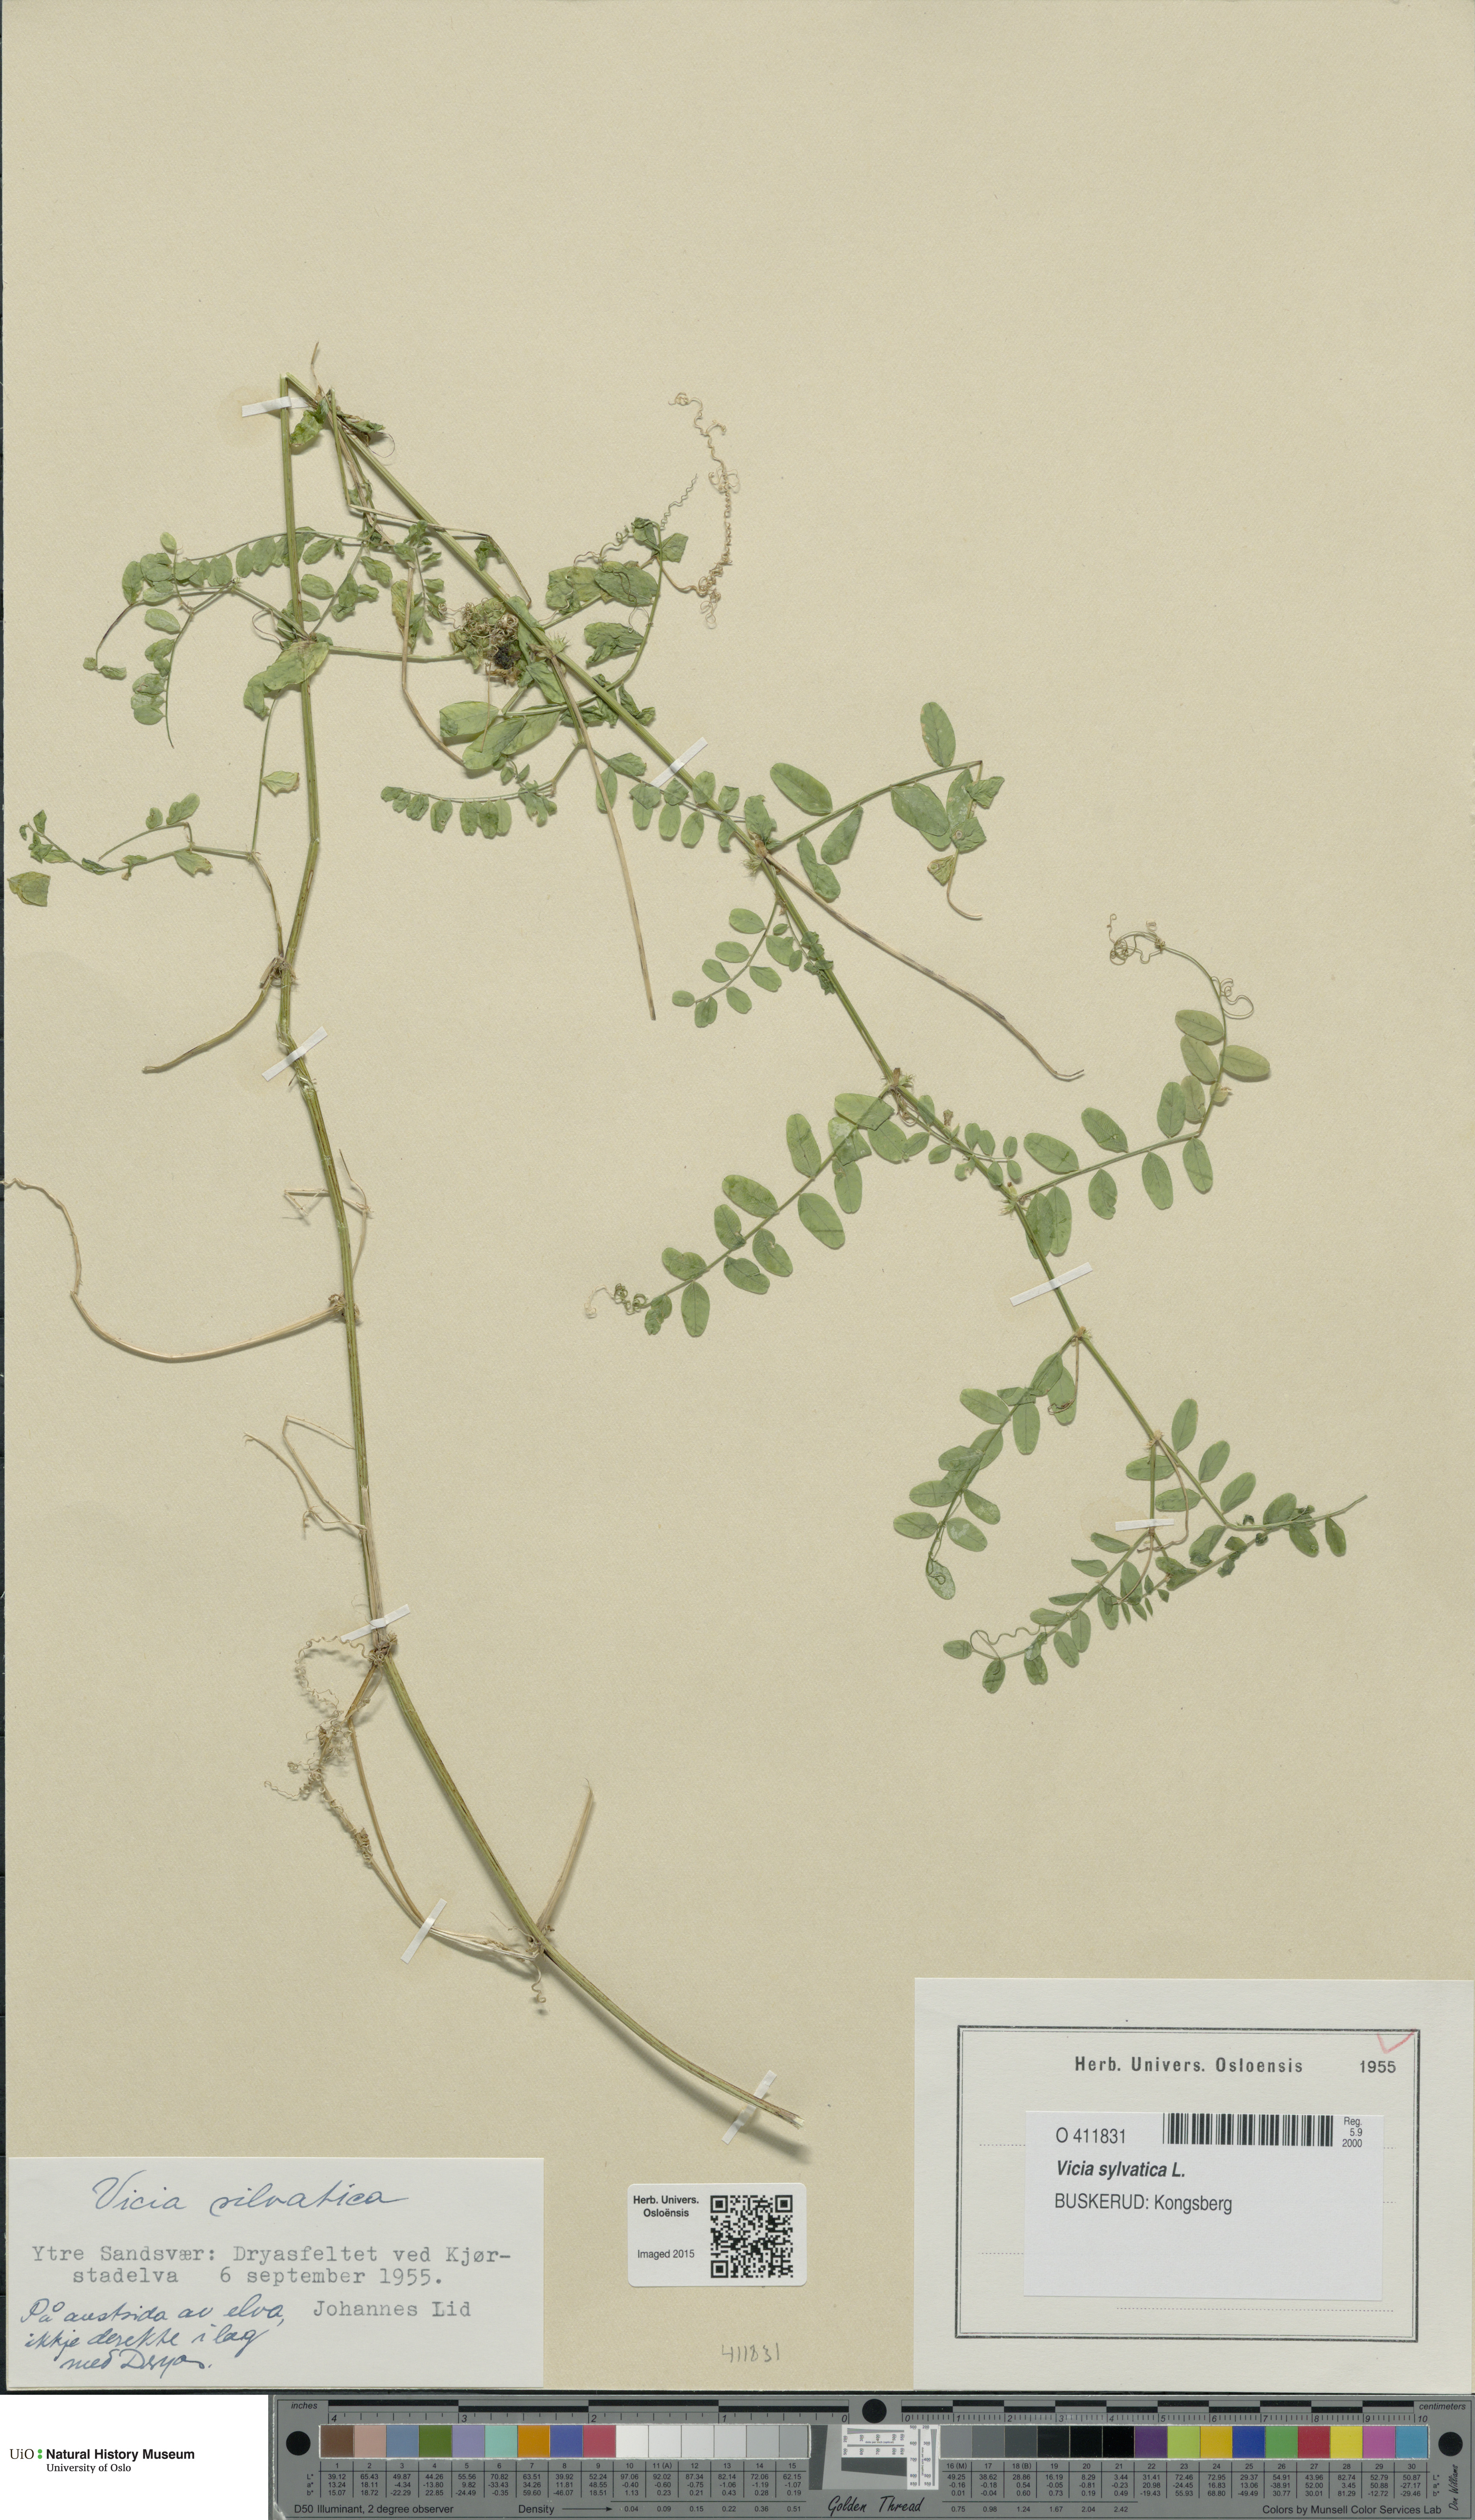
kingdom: Plantae
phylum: Tracheophyta
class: Magnoliopsida
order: Fabales
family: Fabaceae
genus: Vicia
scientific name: Vicia sylvatica
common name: Wood vetch
